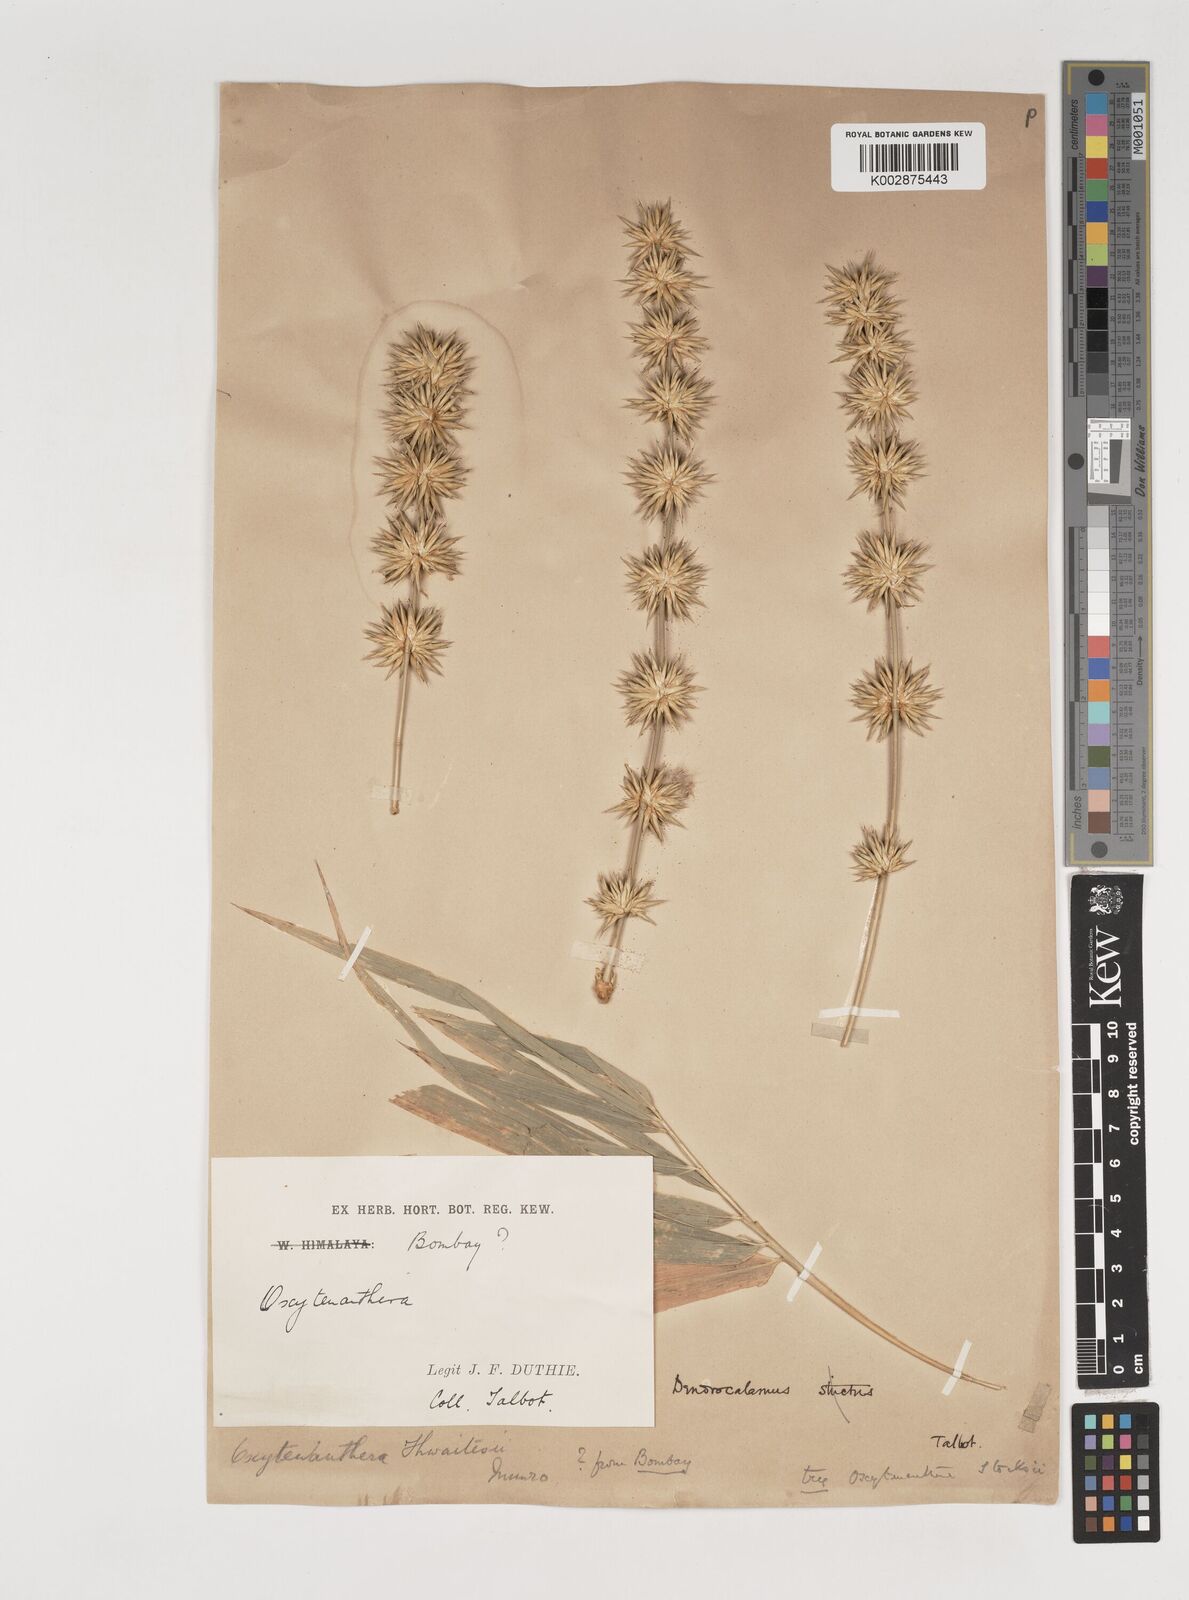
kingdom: Plantae
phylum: Tracheophyta
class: Liliopsida
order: Poales
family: Poaceae
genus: Pseudoxytenanthera
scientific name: Pseudoxytenanthera monadelpha
